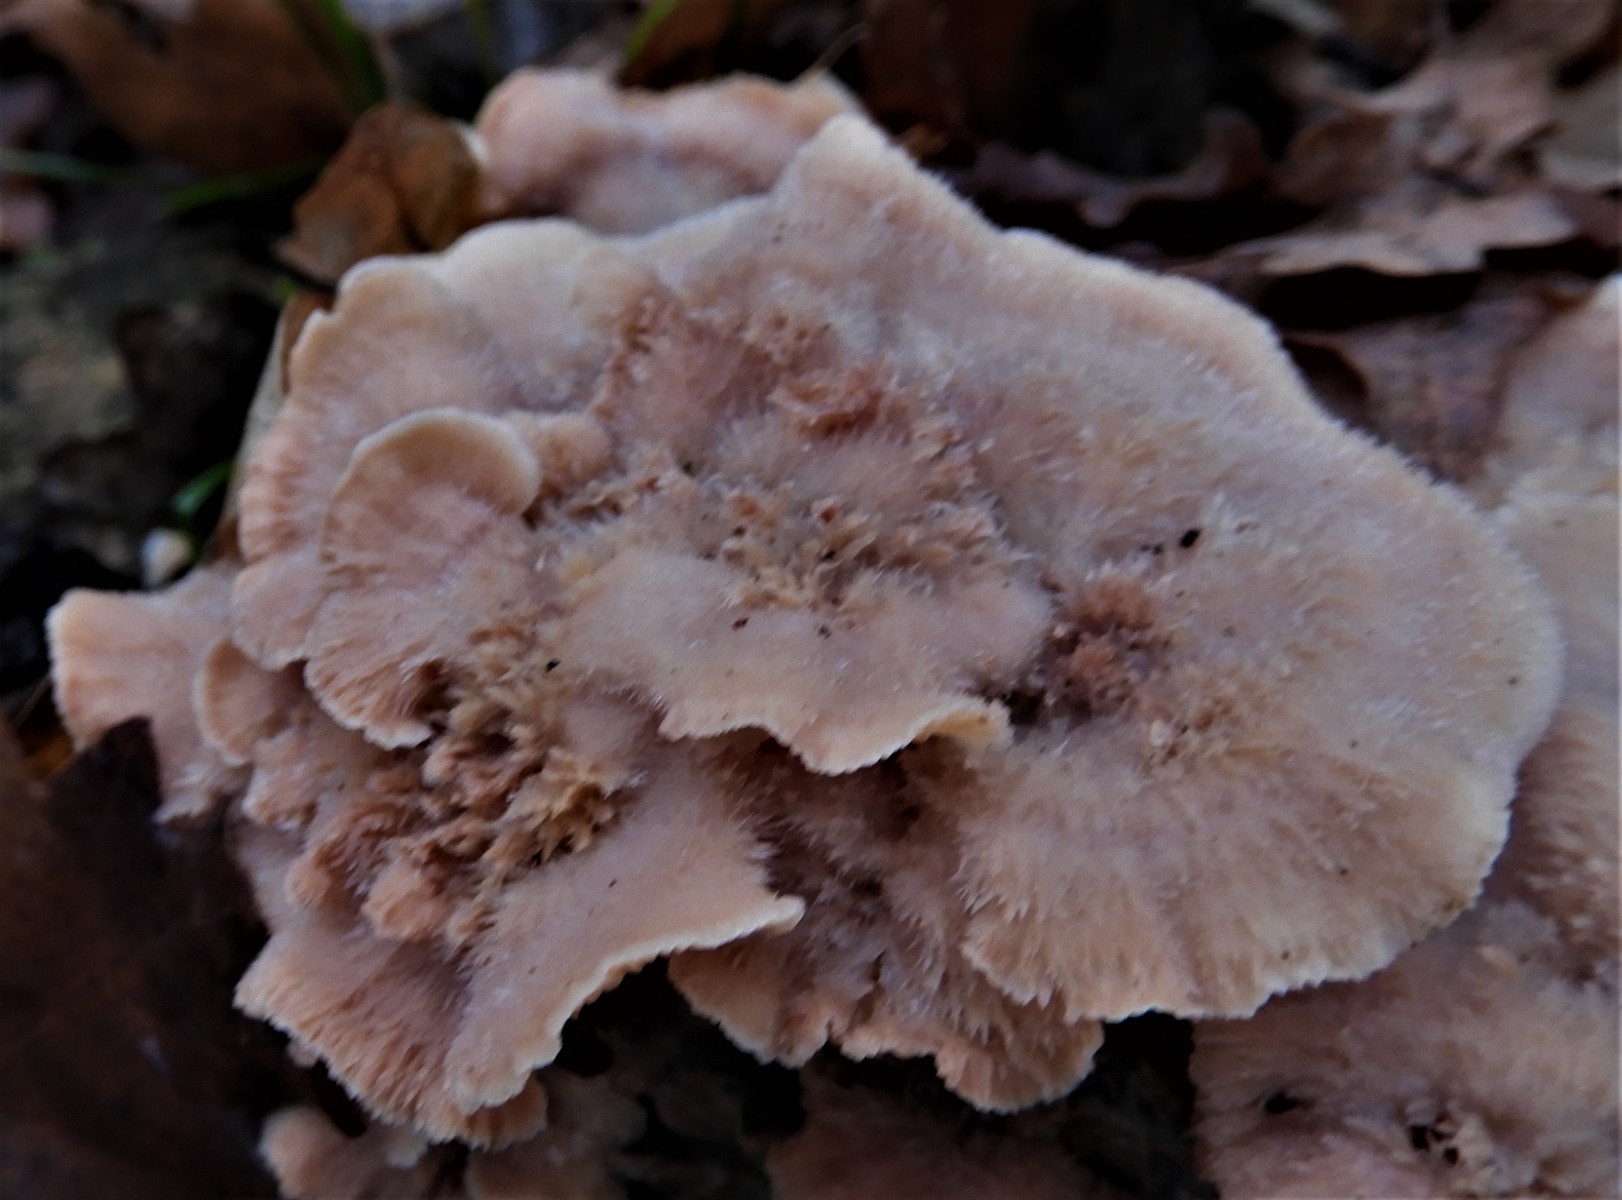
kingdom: Fungi
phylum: Basidiomycota
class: Agaricomycetes
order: Polyporales
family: Meruliaceae
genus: Phlebia
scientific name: Phlebia tremellosa
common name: bævrende åresvamp
